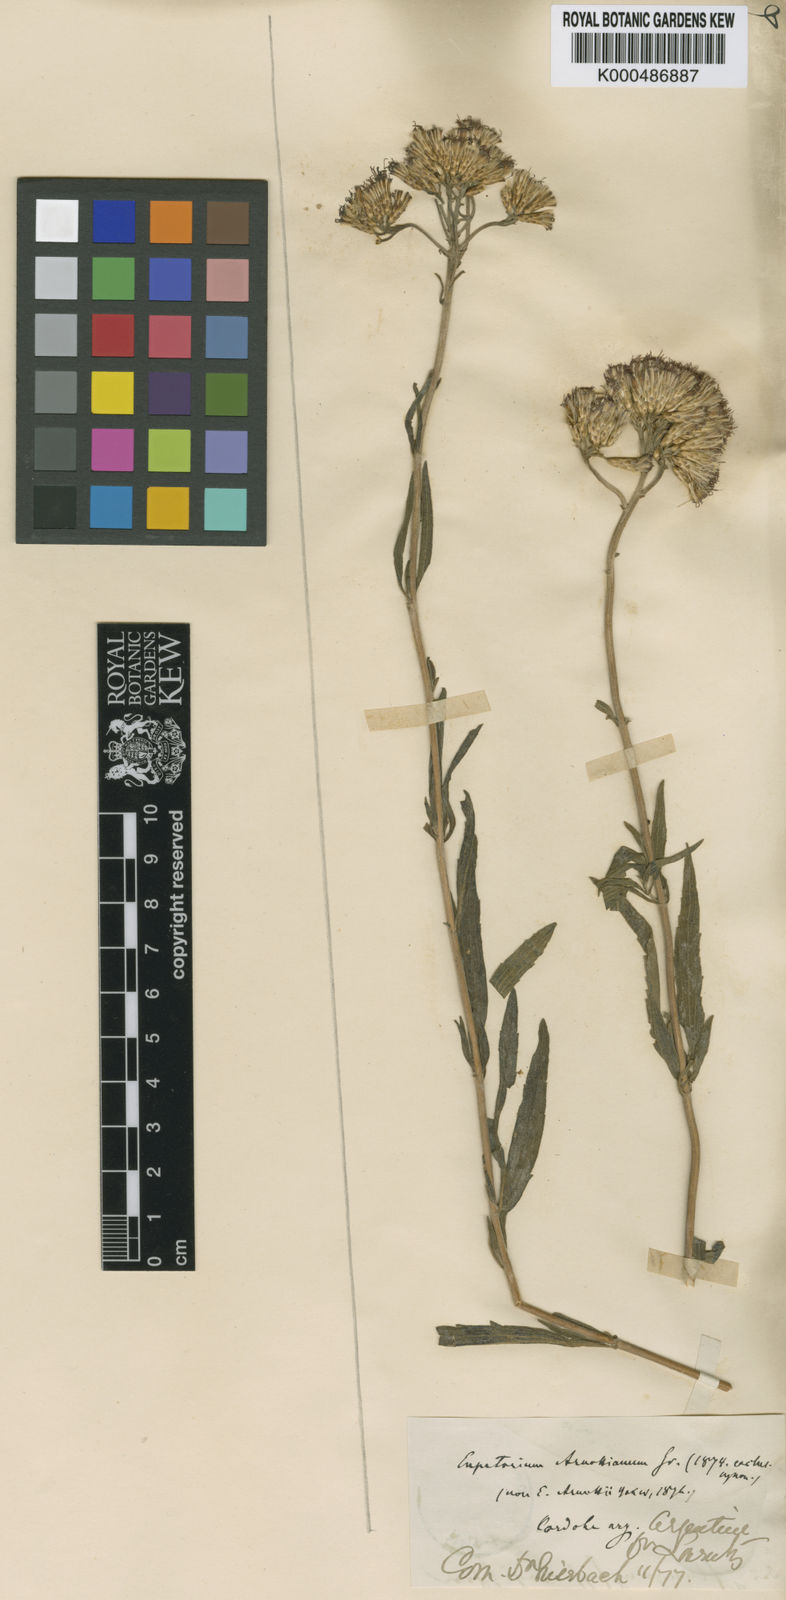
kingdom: Plantae
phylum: Tracheophyta
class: Magnoliopsida
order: Asterales
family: Asteraceae
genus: Chromolaena
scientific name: Chromolaena arnottiana
